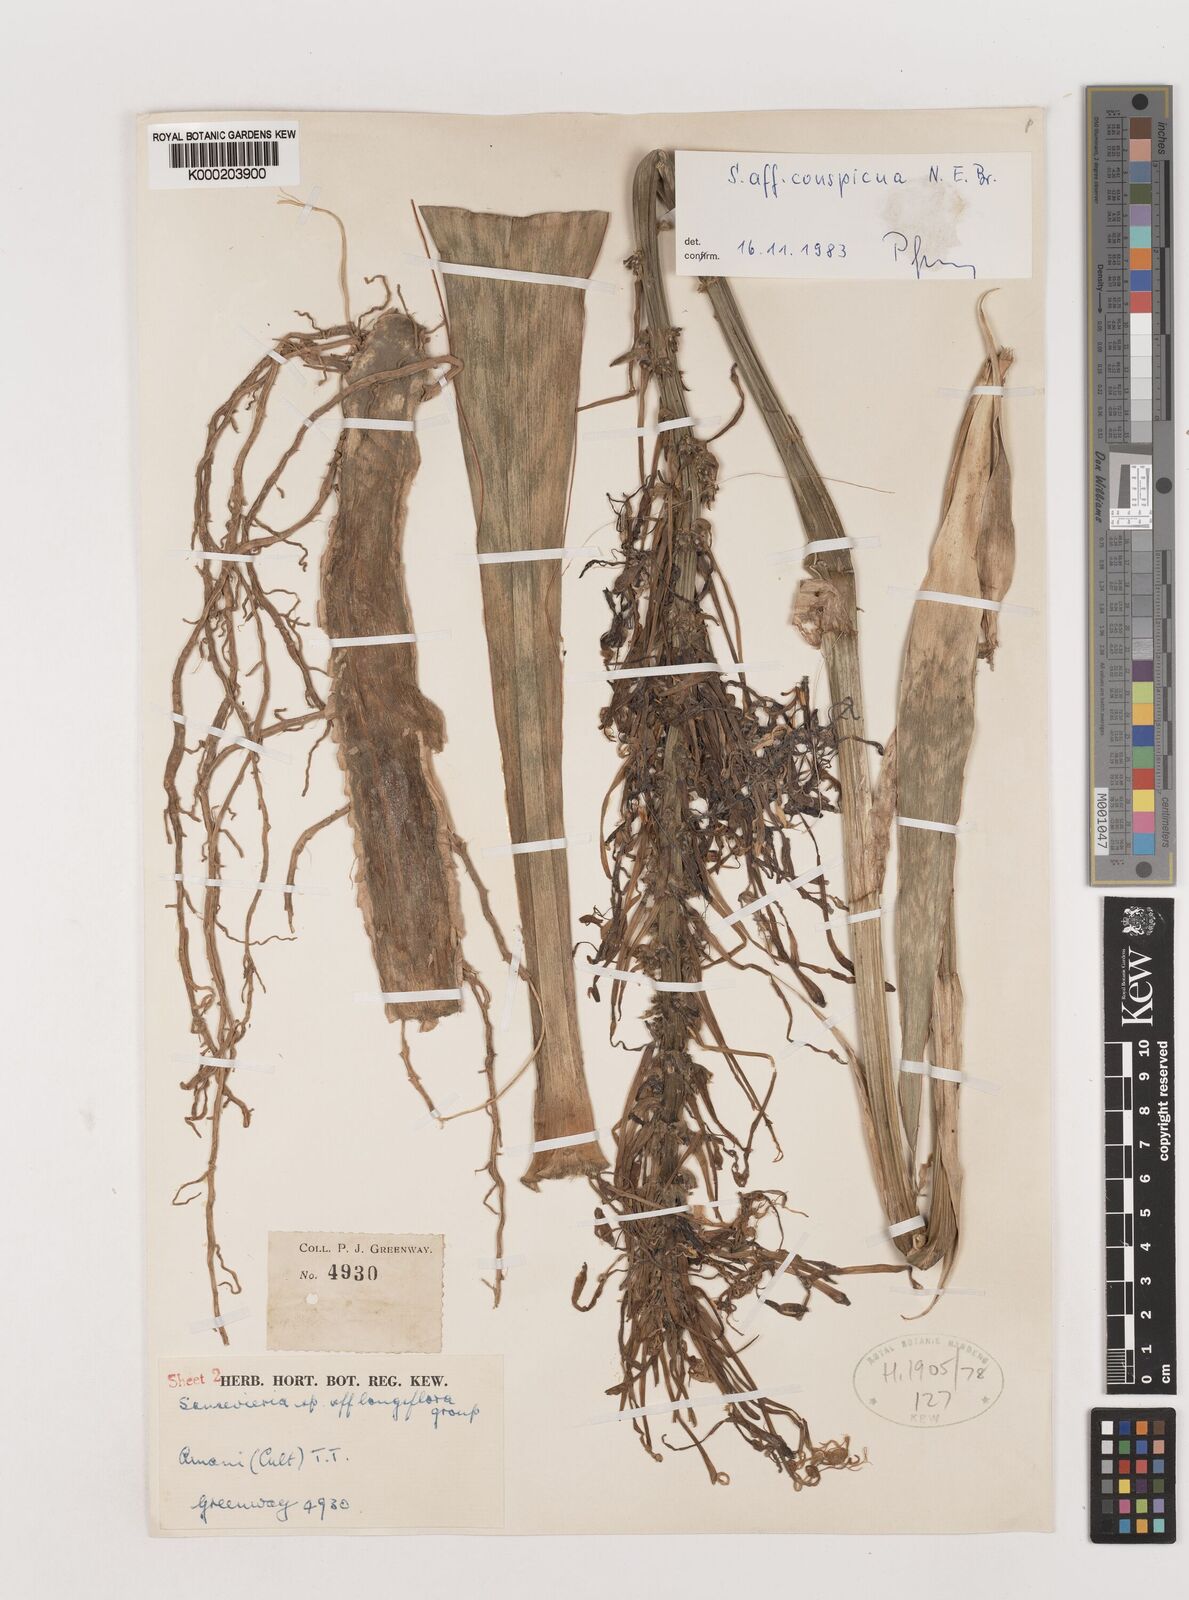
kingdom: Plantae
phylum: Tracheophyta
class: Liliopsida
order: Asparagales
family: Asparagaceae
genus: Dracaena
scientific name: Dracaena conspicua
